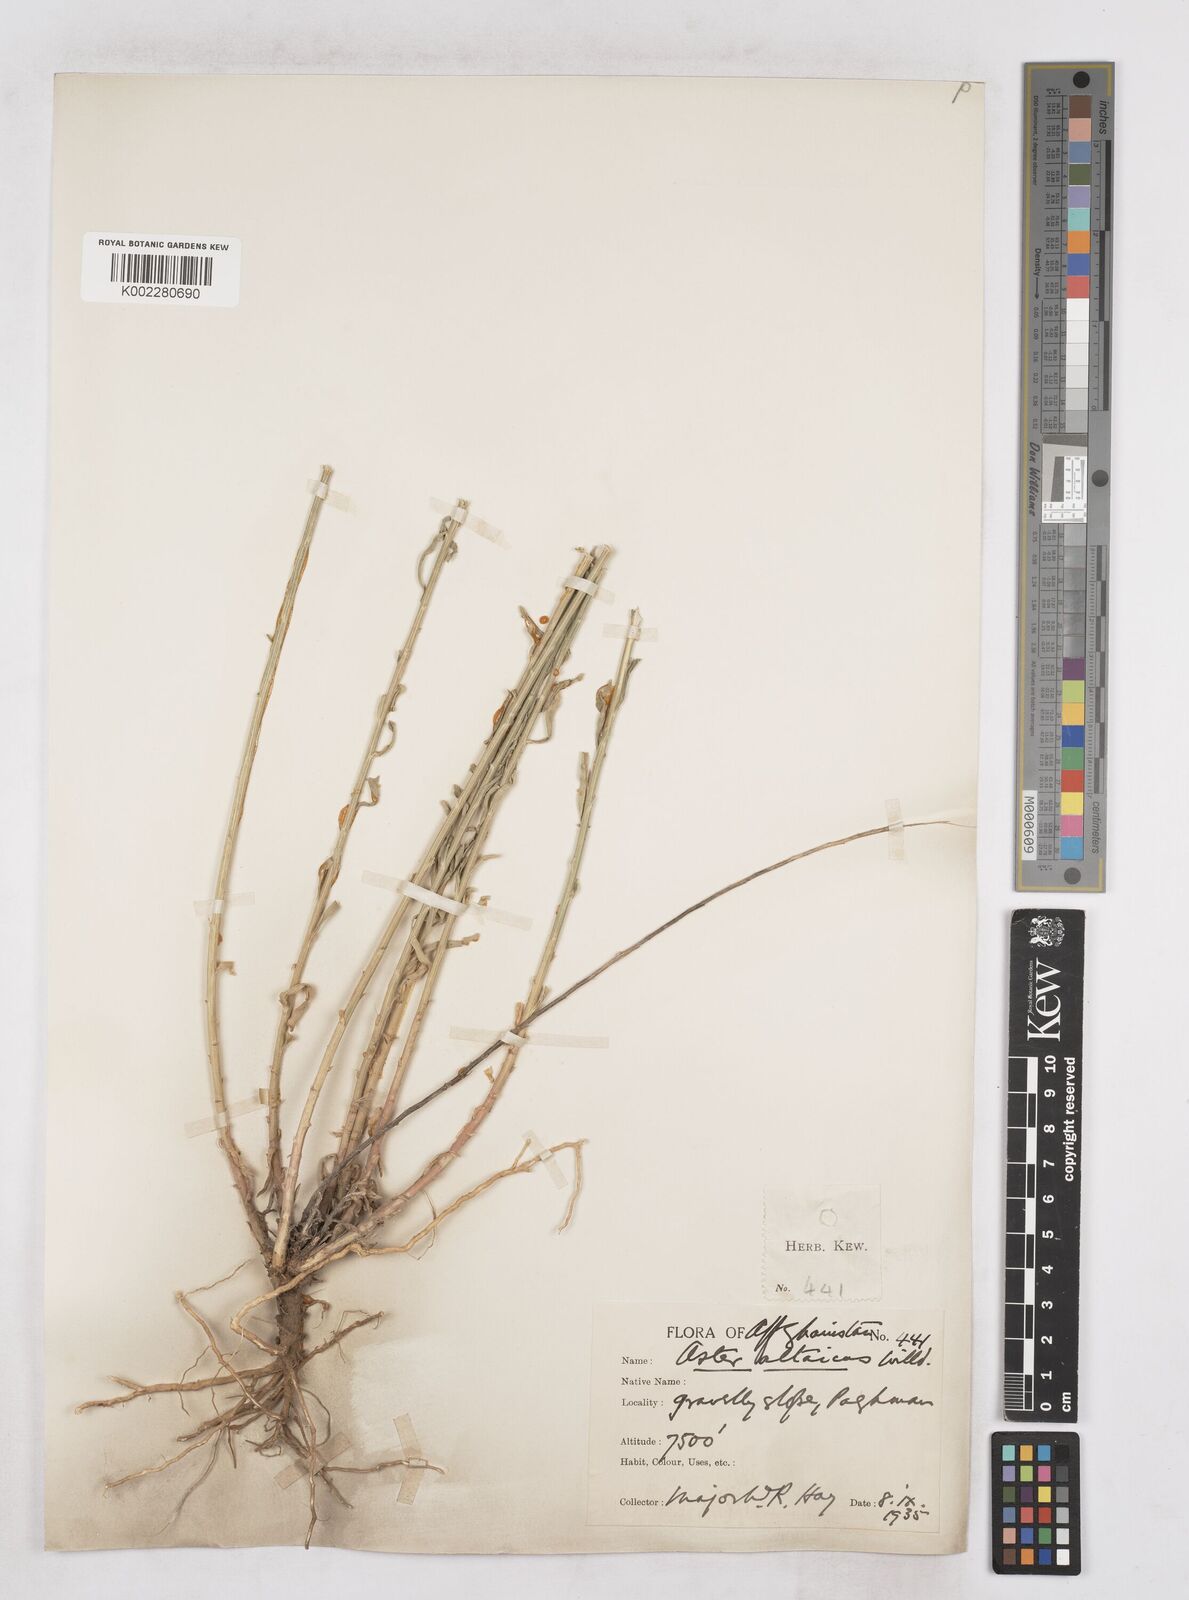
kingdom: Plantae
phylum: Tracheophyta
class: Magnoliopsida
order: Asterales
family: Asteraceae
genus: Heteropappus
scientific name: Heteropappus altaicus
